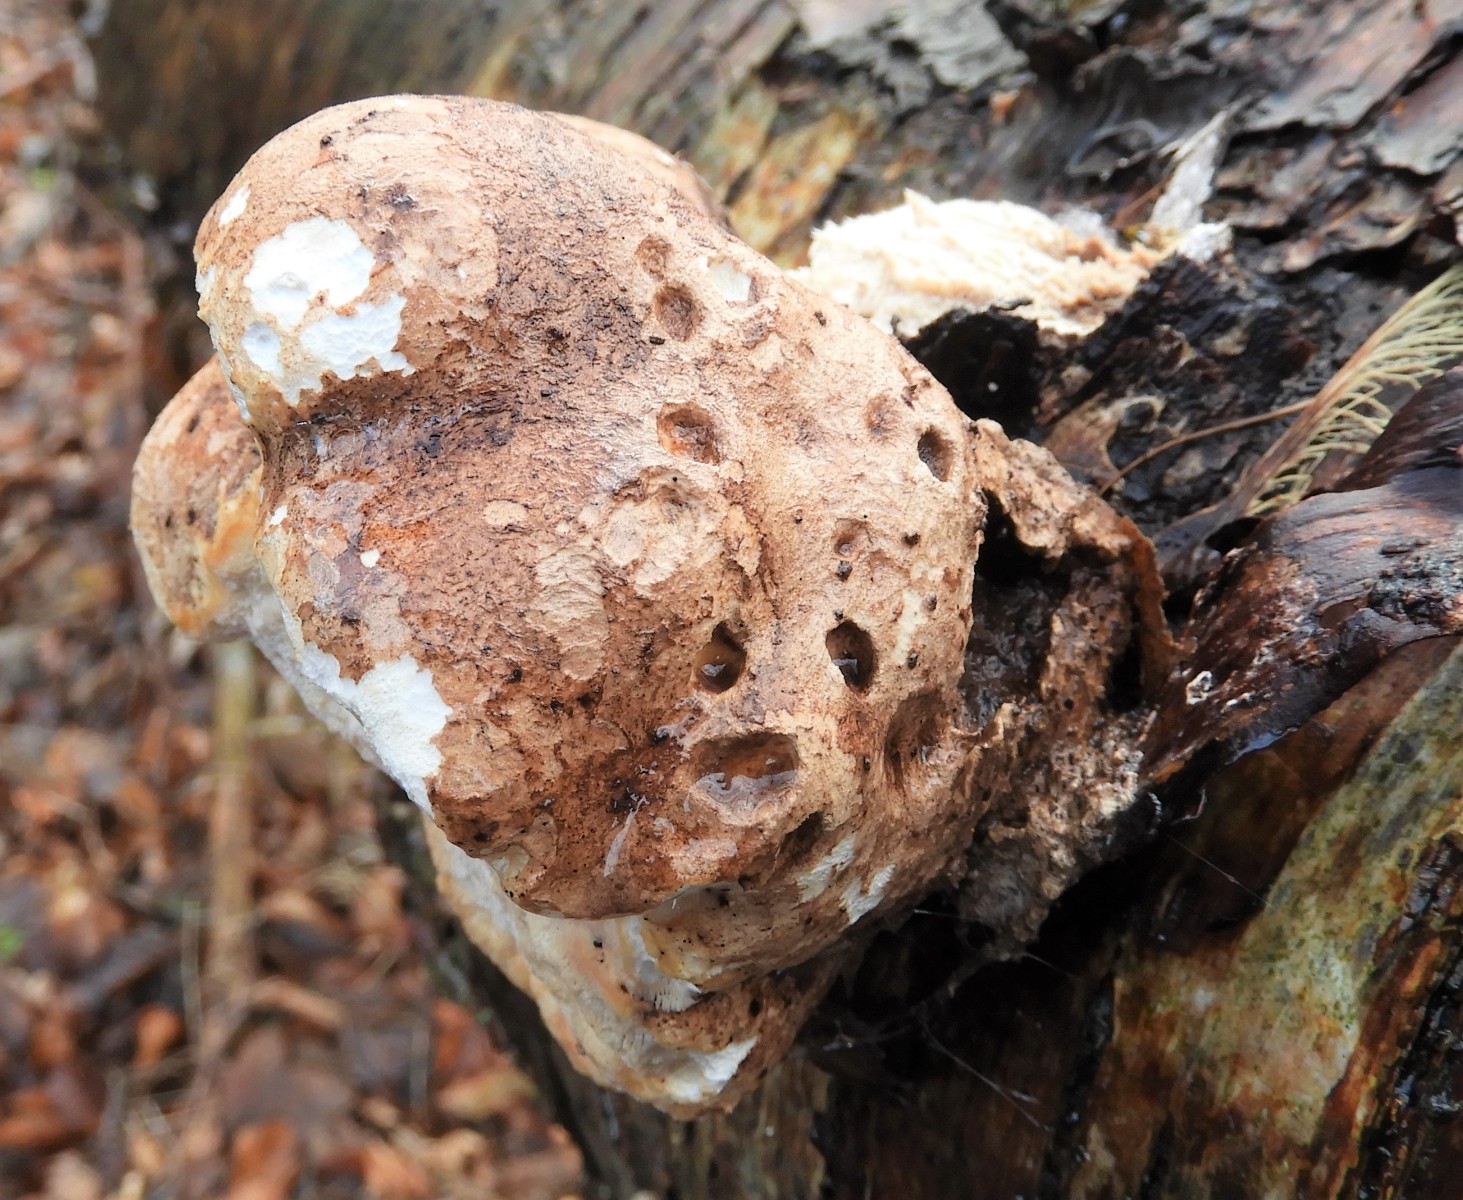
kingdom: Fungi
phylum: Basidiomycota
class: Agaricomycetes
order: Polyporales
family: Fomitopsidaceae
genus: Fomitopsis
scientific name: Fomitopsis betulina
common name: birkeporesvamp
